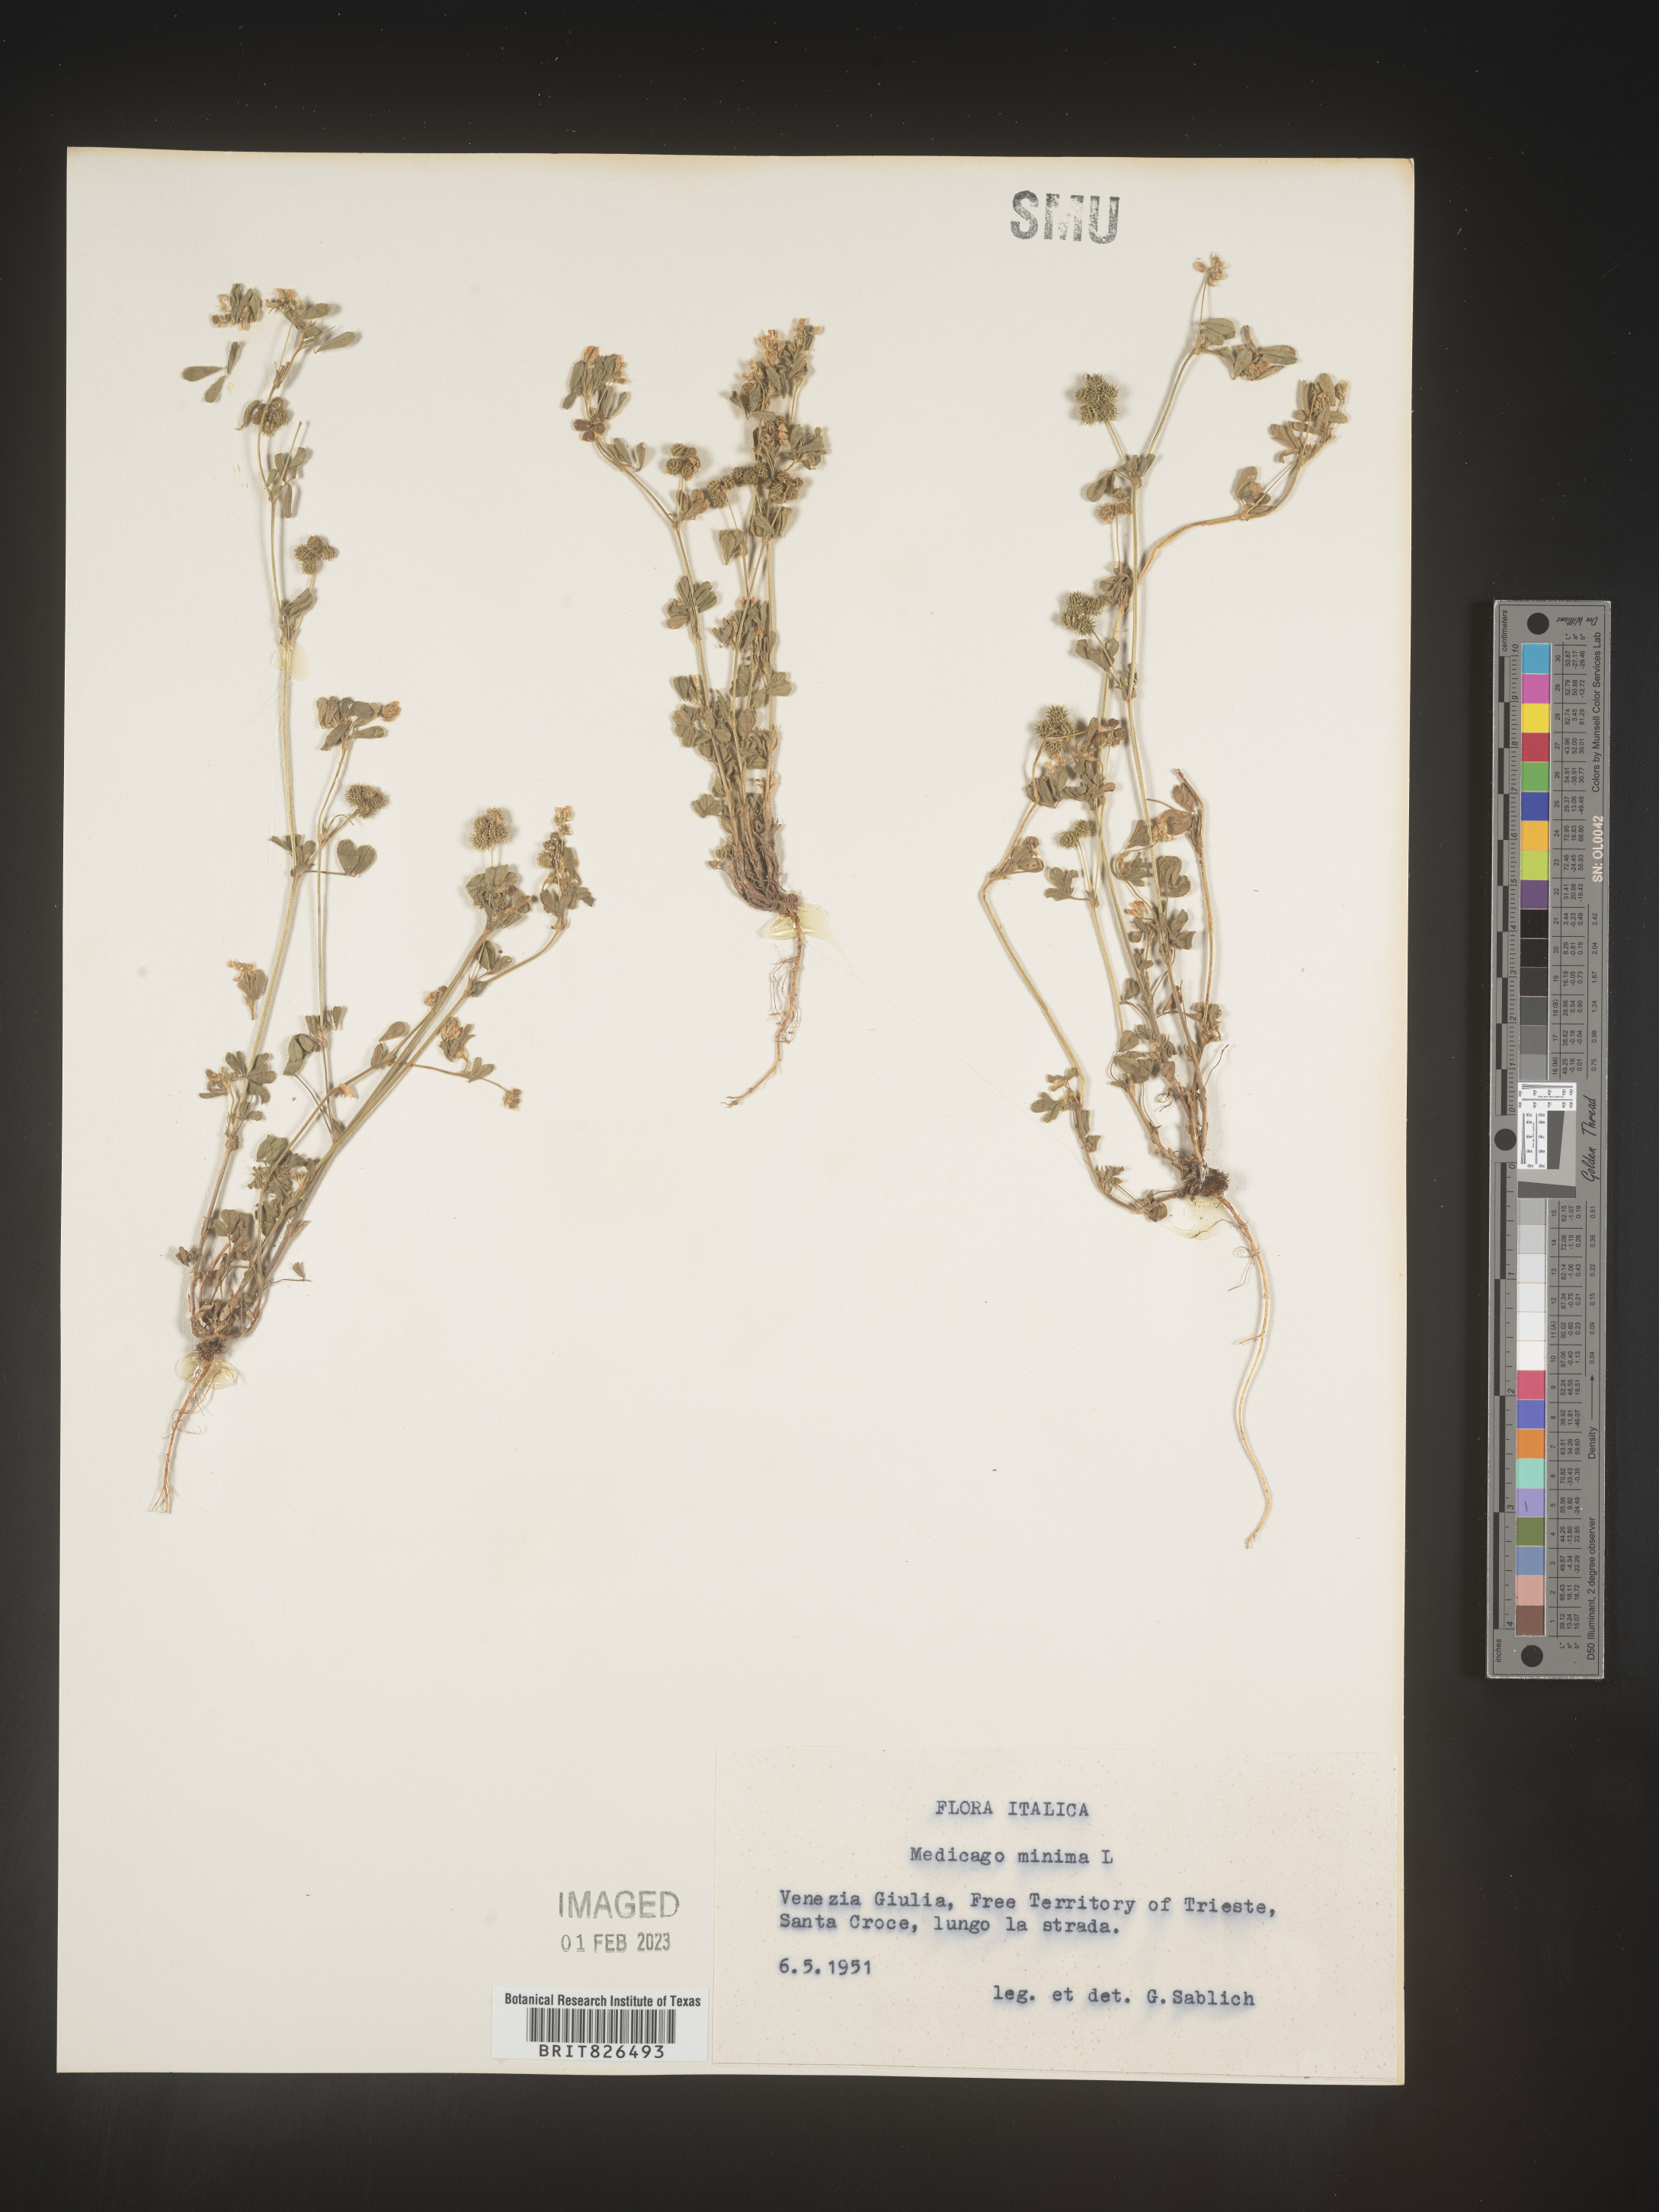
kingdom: Plantae
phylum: Tracheophyta
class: Magnoliopsida
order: Fabales
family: Fabaceae
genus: Medicago
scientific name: Medicago
